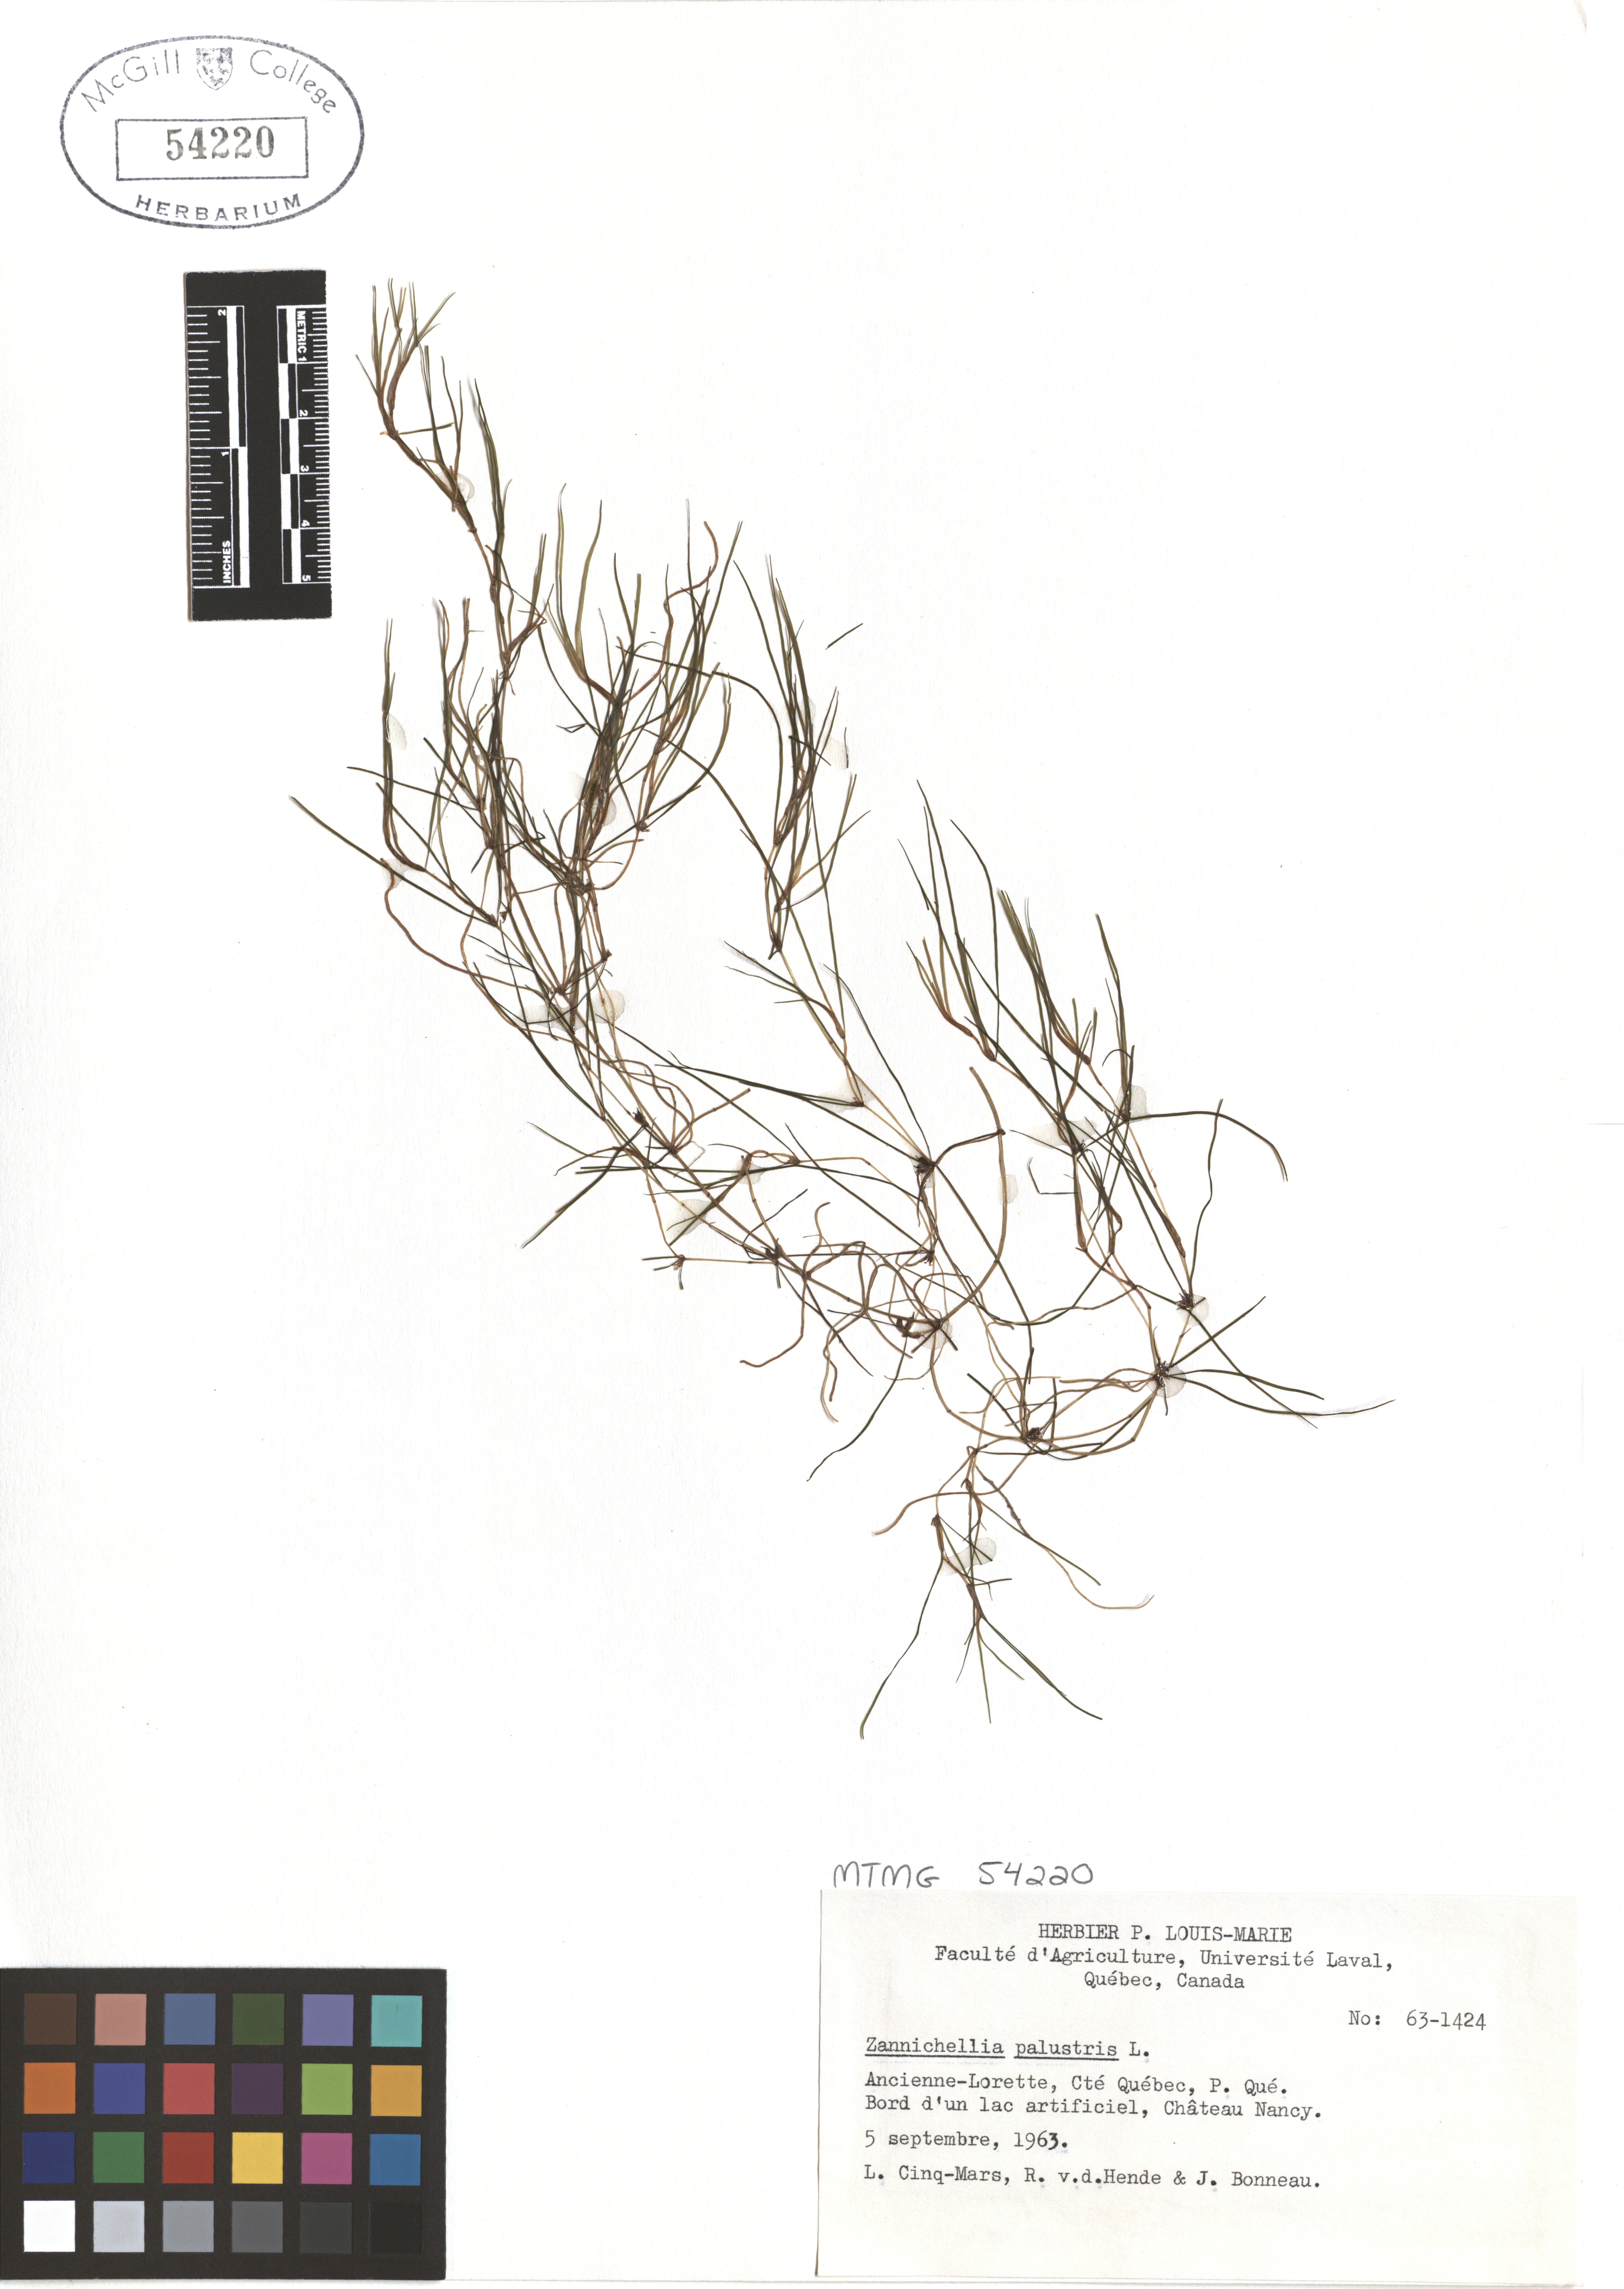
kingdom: Plantae
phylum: Tracheophyta
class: Liliopsida
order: Alismatales
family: Potamogetonaceae
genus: Zannichellia
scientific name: Zannichellia palustris
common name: Horned pondweed
